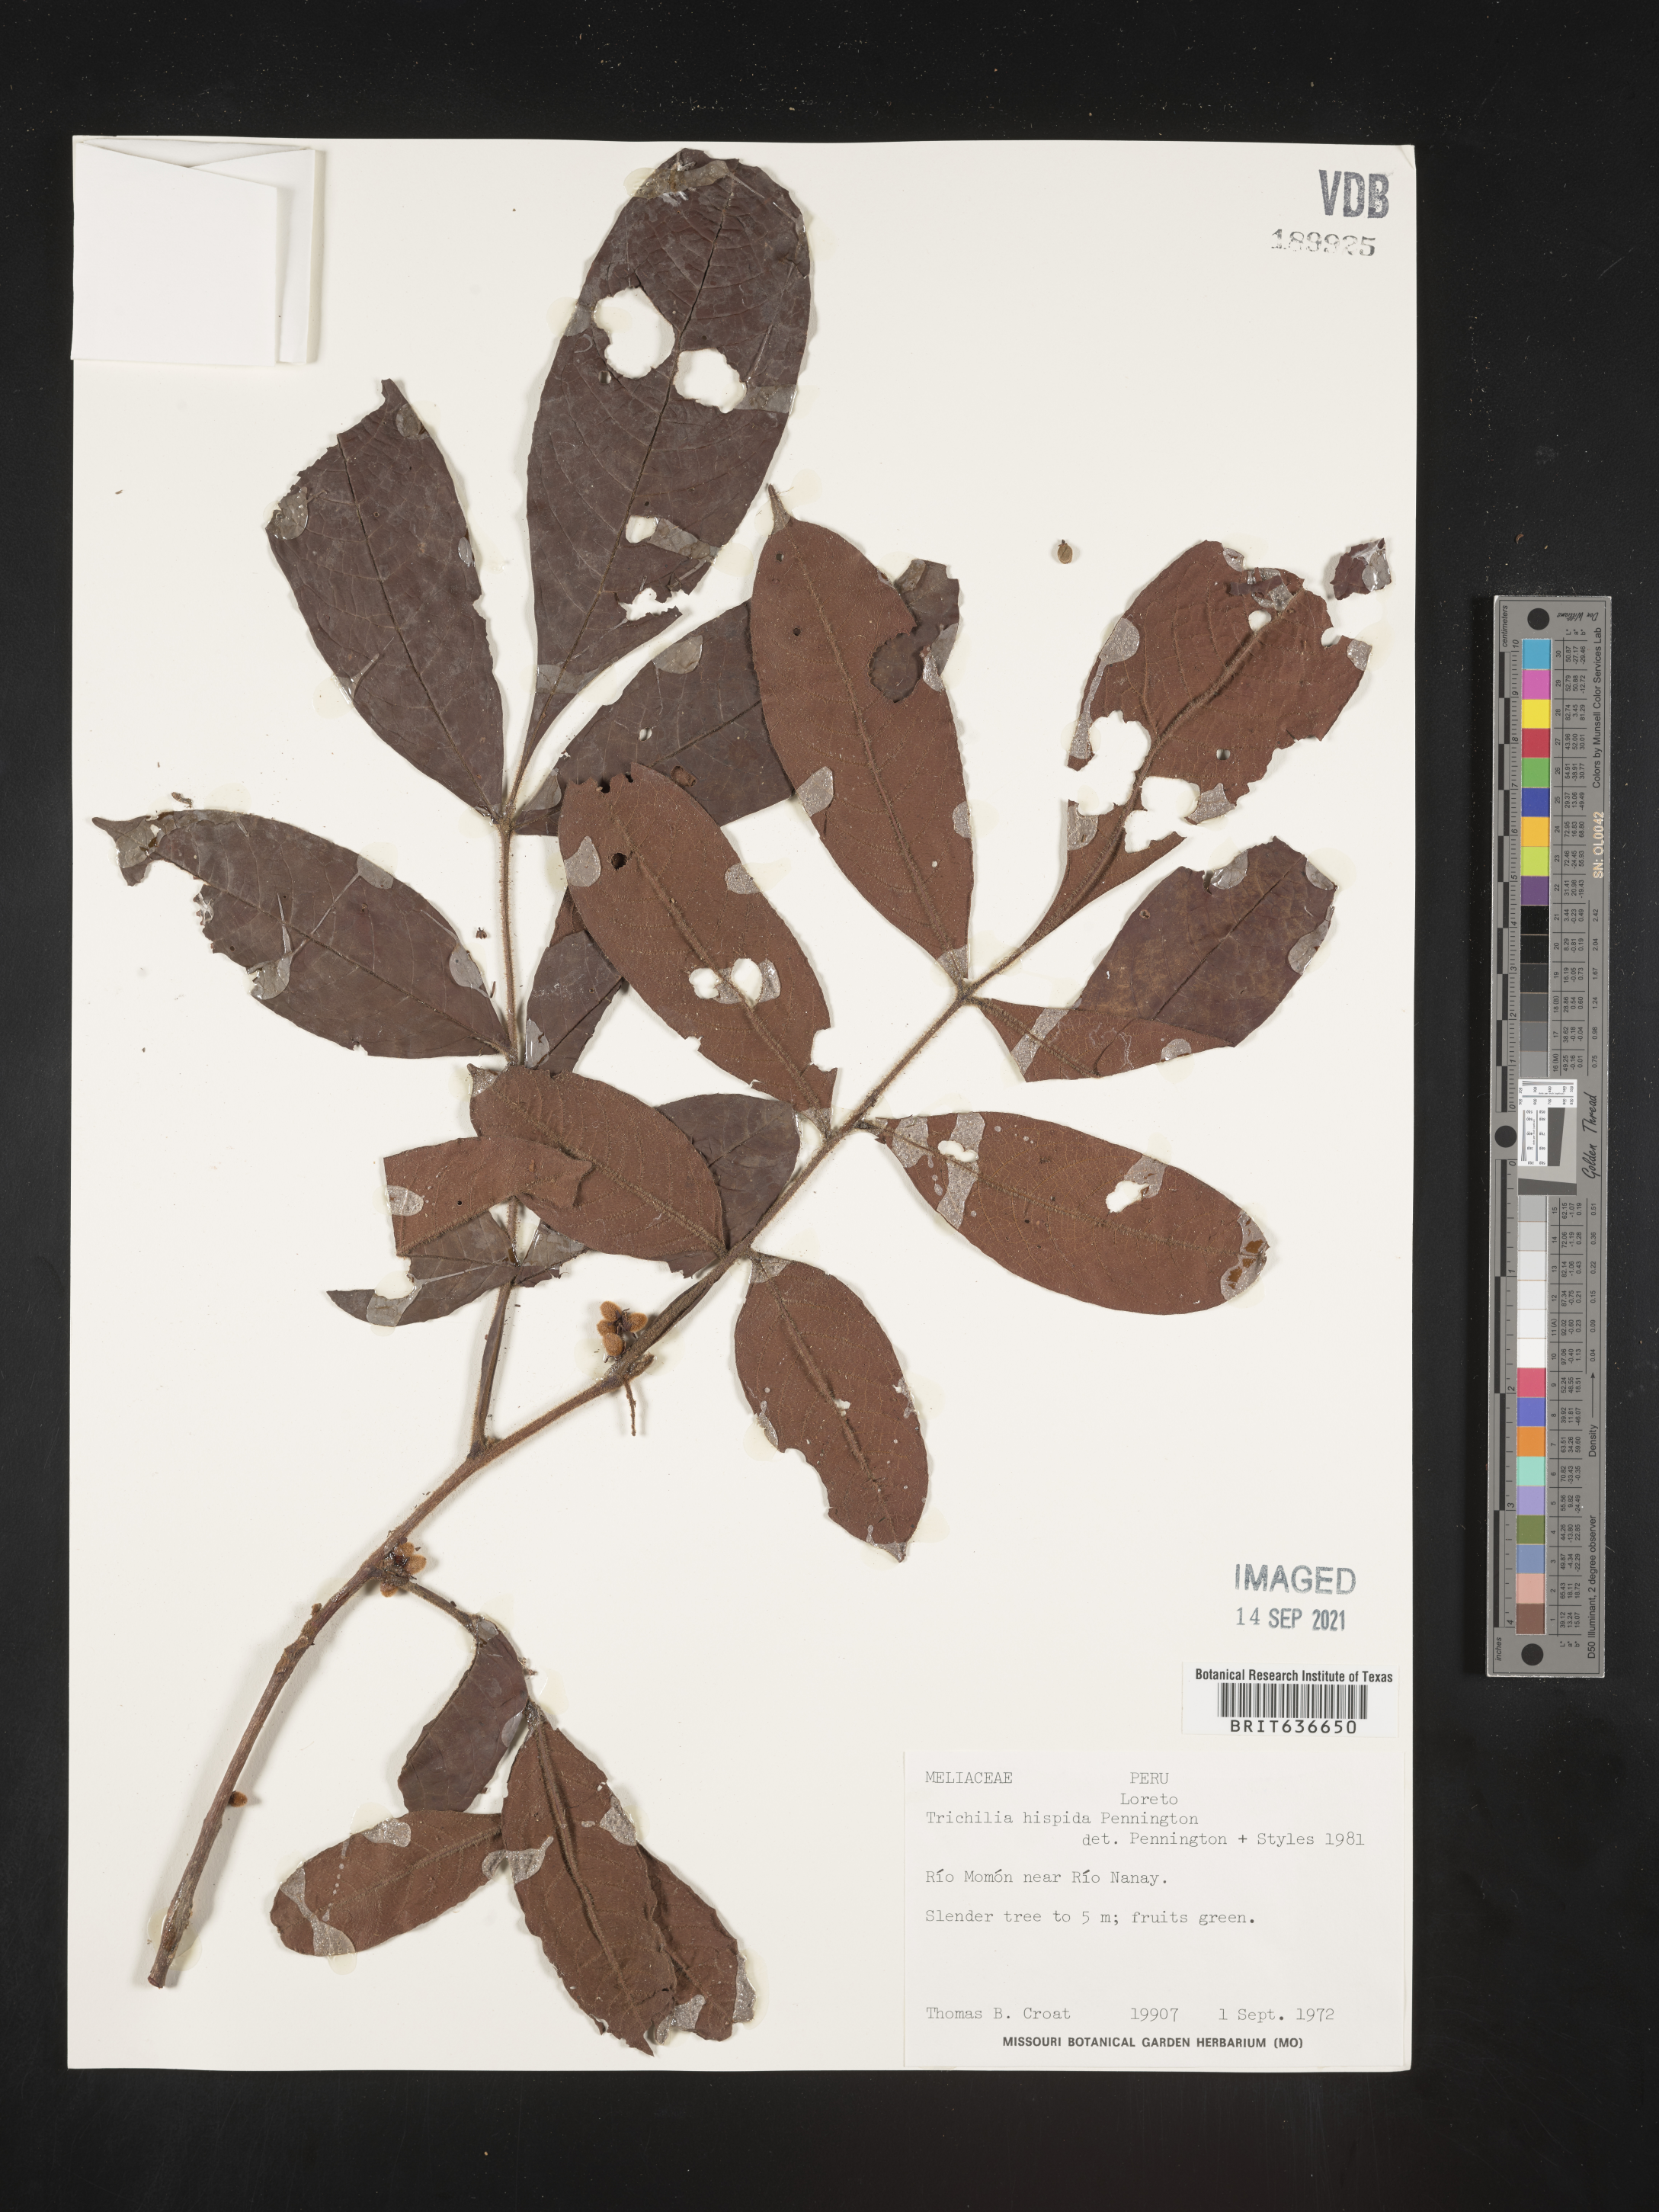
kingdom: Plantae
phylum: Tracheophyta
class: Magnoliopsida
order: Sapindales
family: Meliaceae
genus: Trichilia
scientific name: Trichilia
